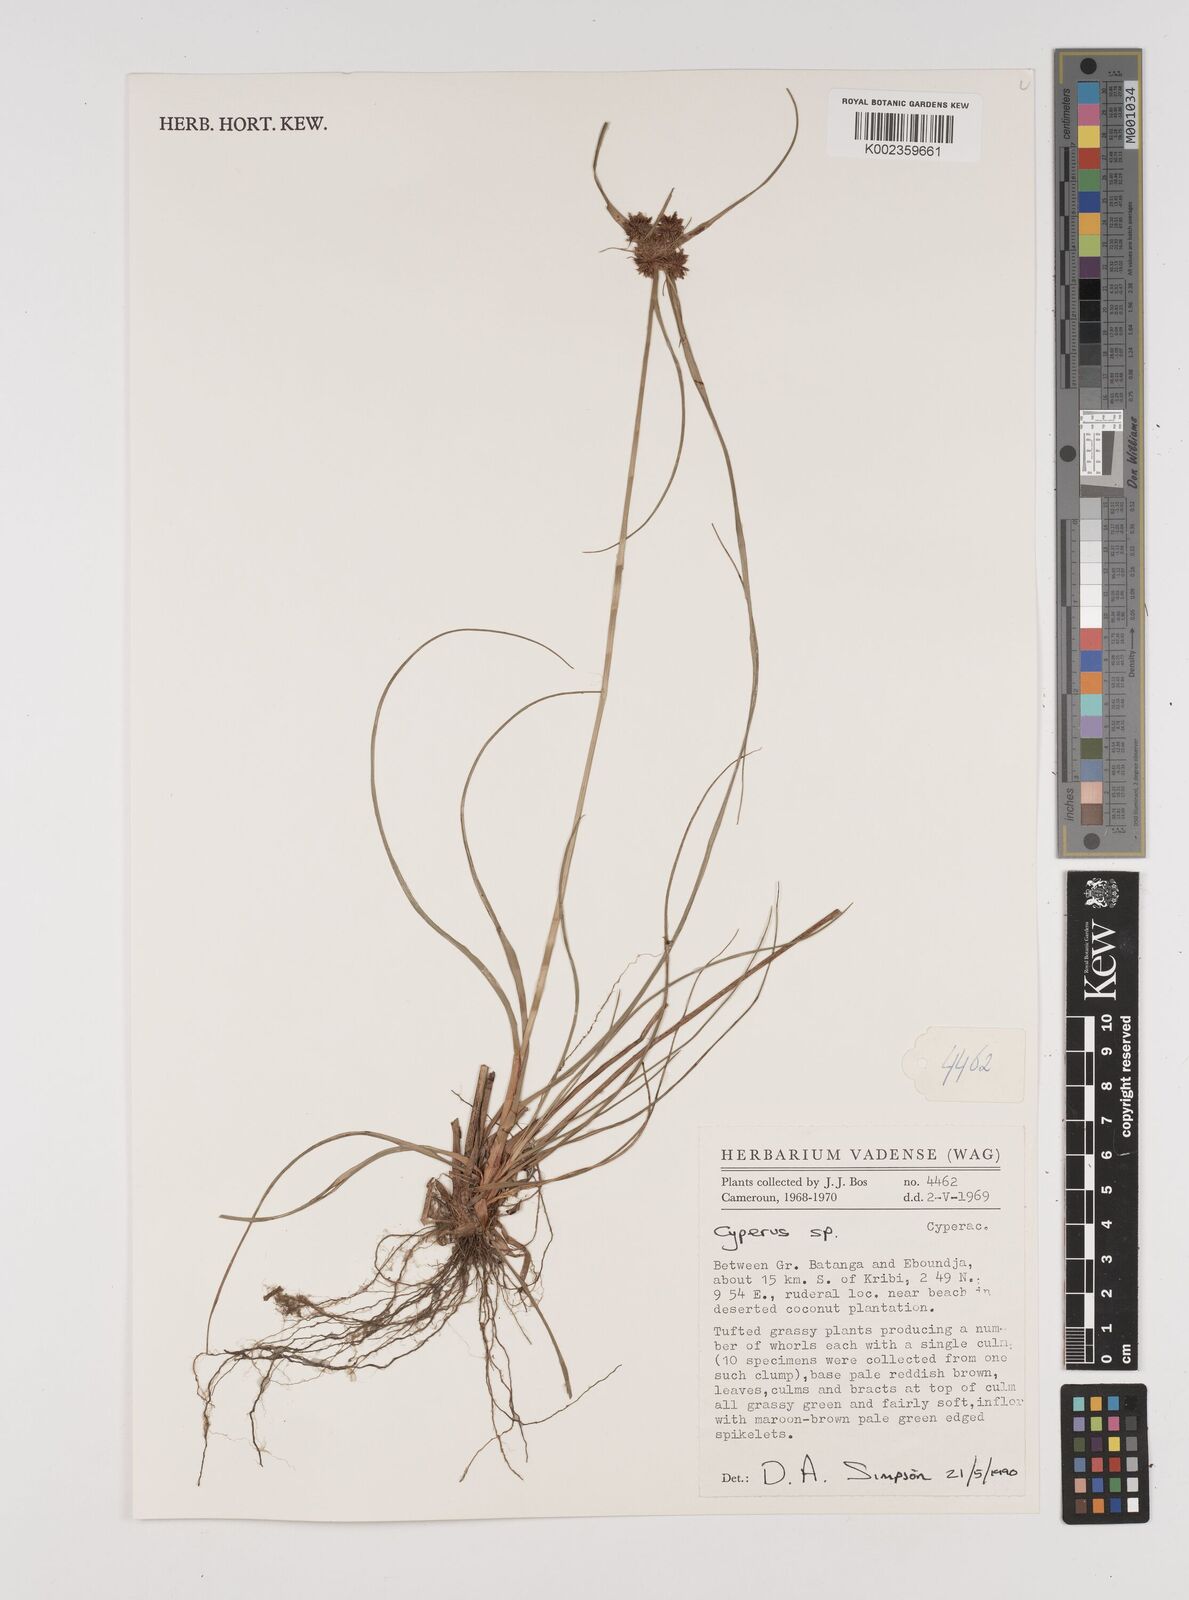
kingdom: Plantae
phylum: Tracheophyta
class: Liliopsida
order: Poales
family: Cyperaceae
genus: Cyperus
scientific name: Cyperus
